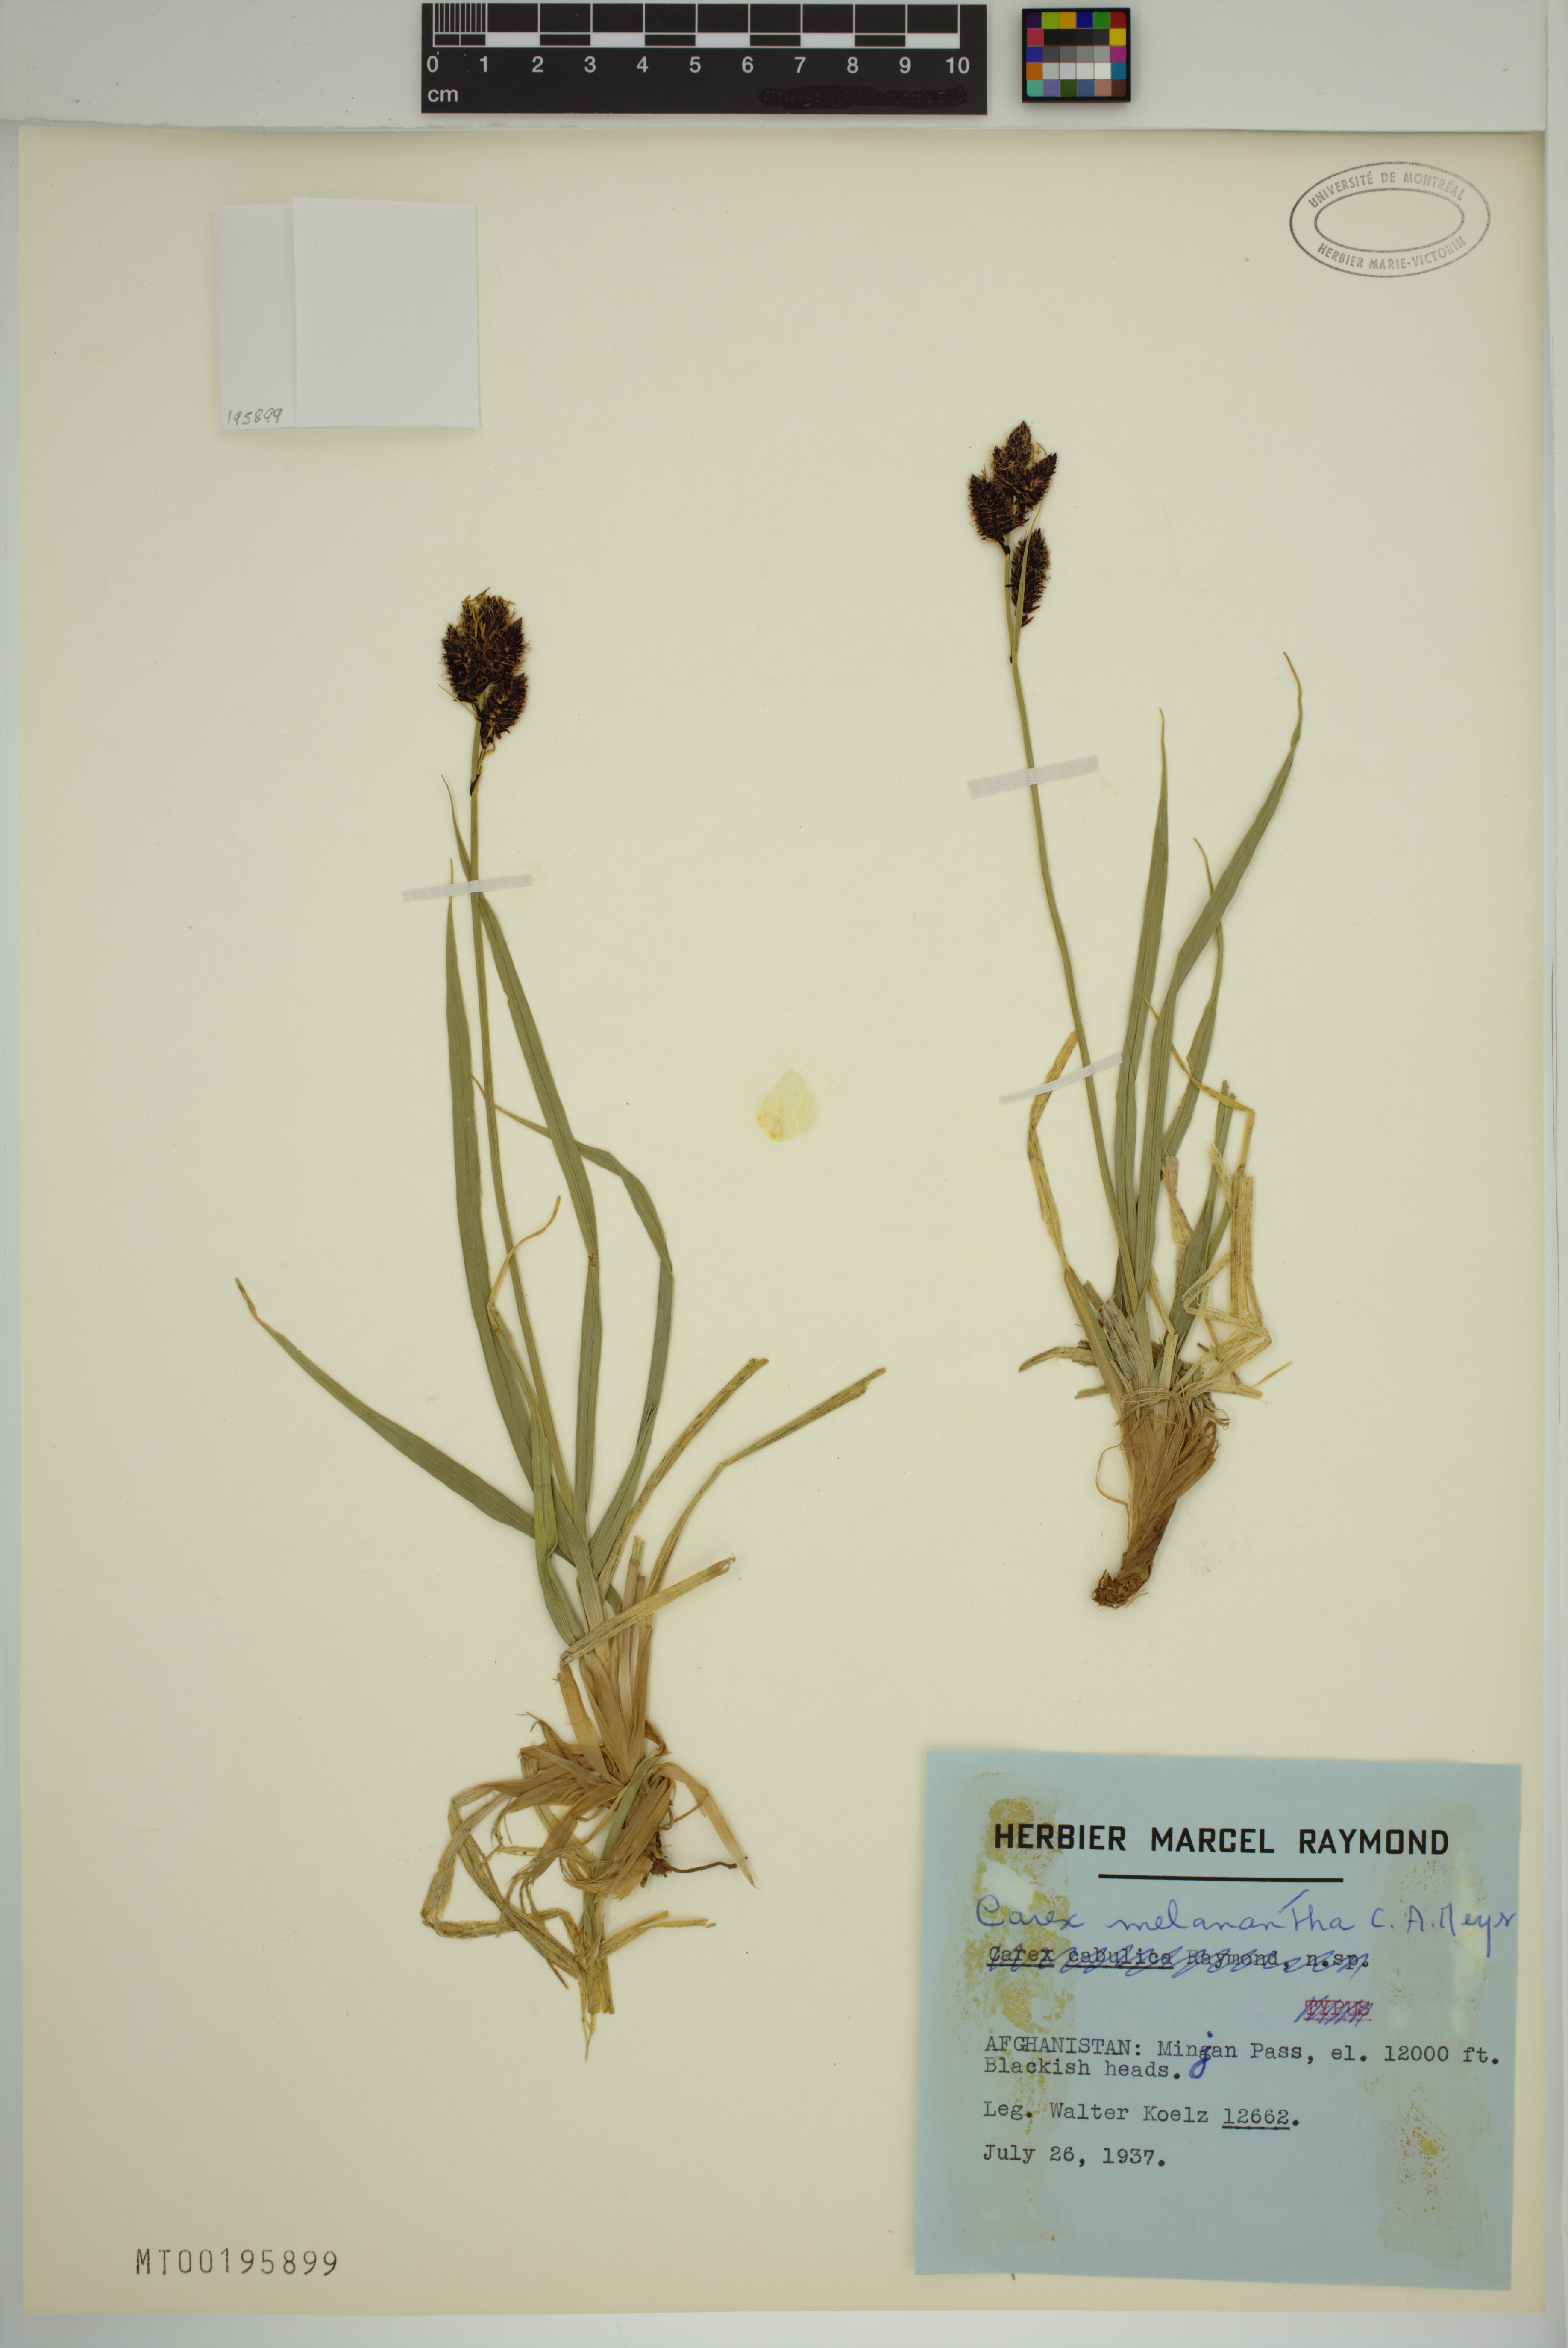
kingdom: Plantae
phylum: Tracheophyta
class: Liliopsida
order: Poales
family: Cyperaceae
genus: Carex
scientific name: Carex melanantha
